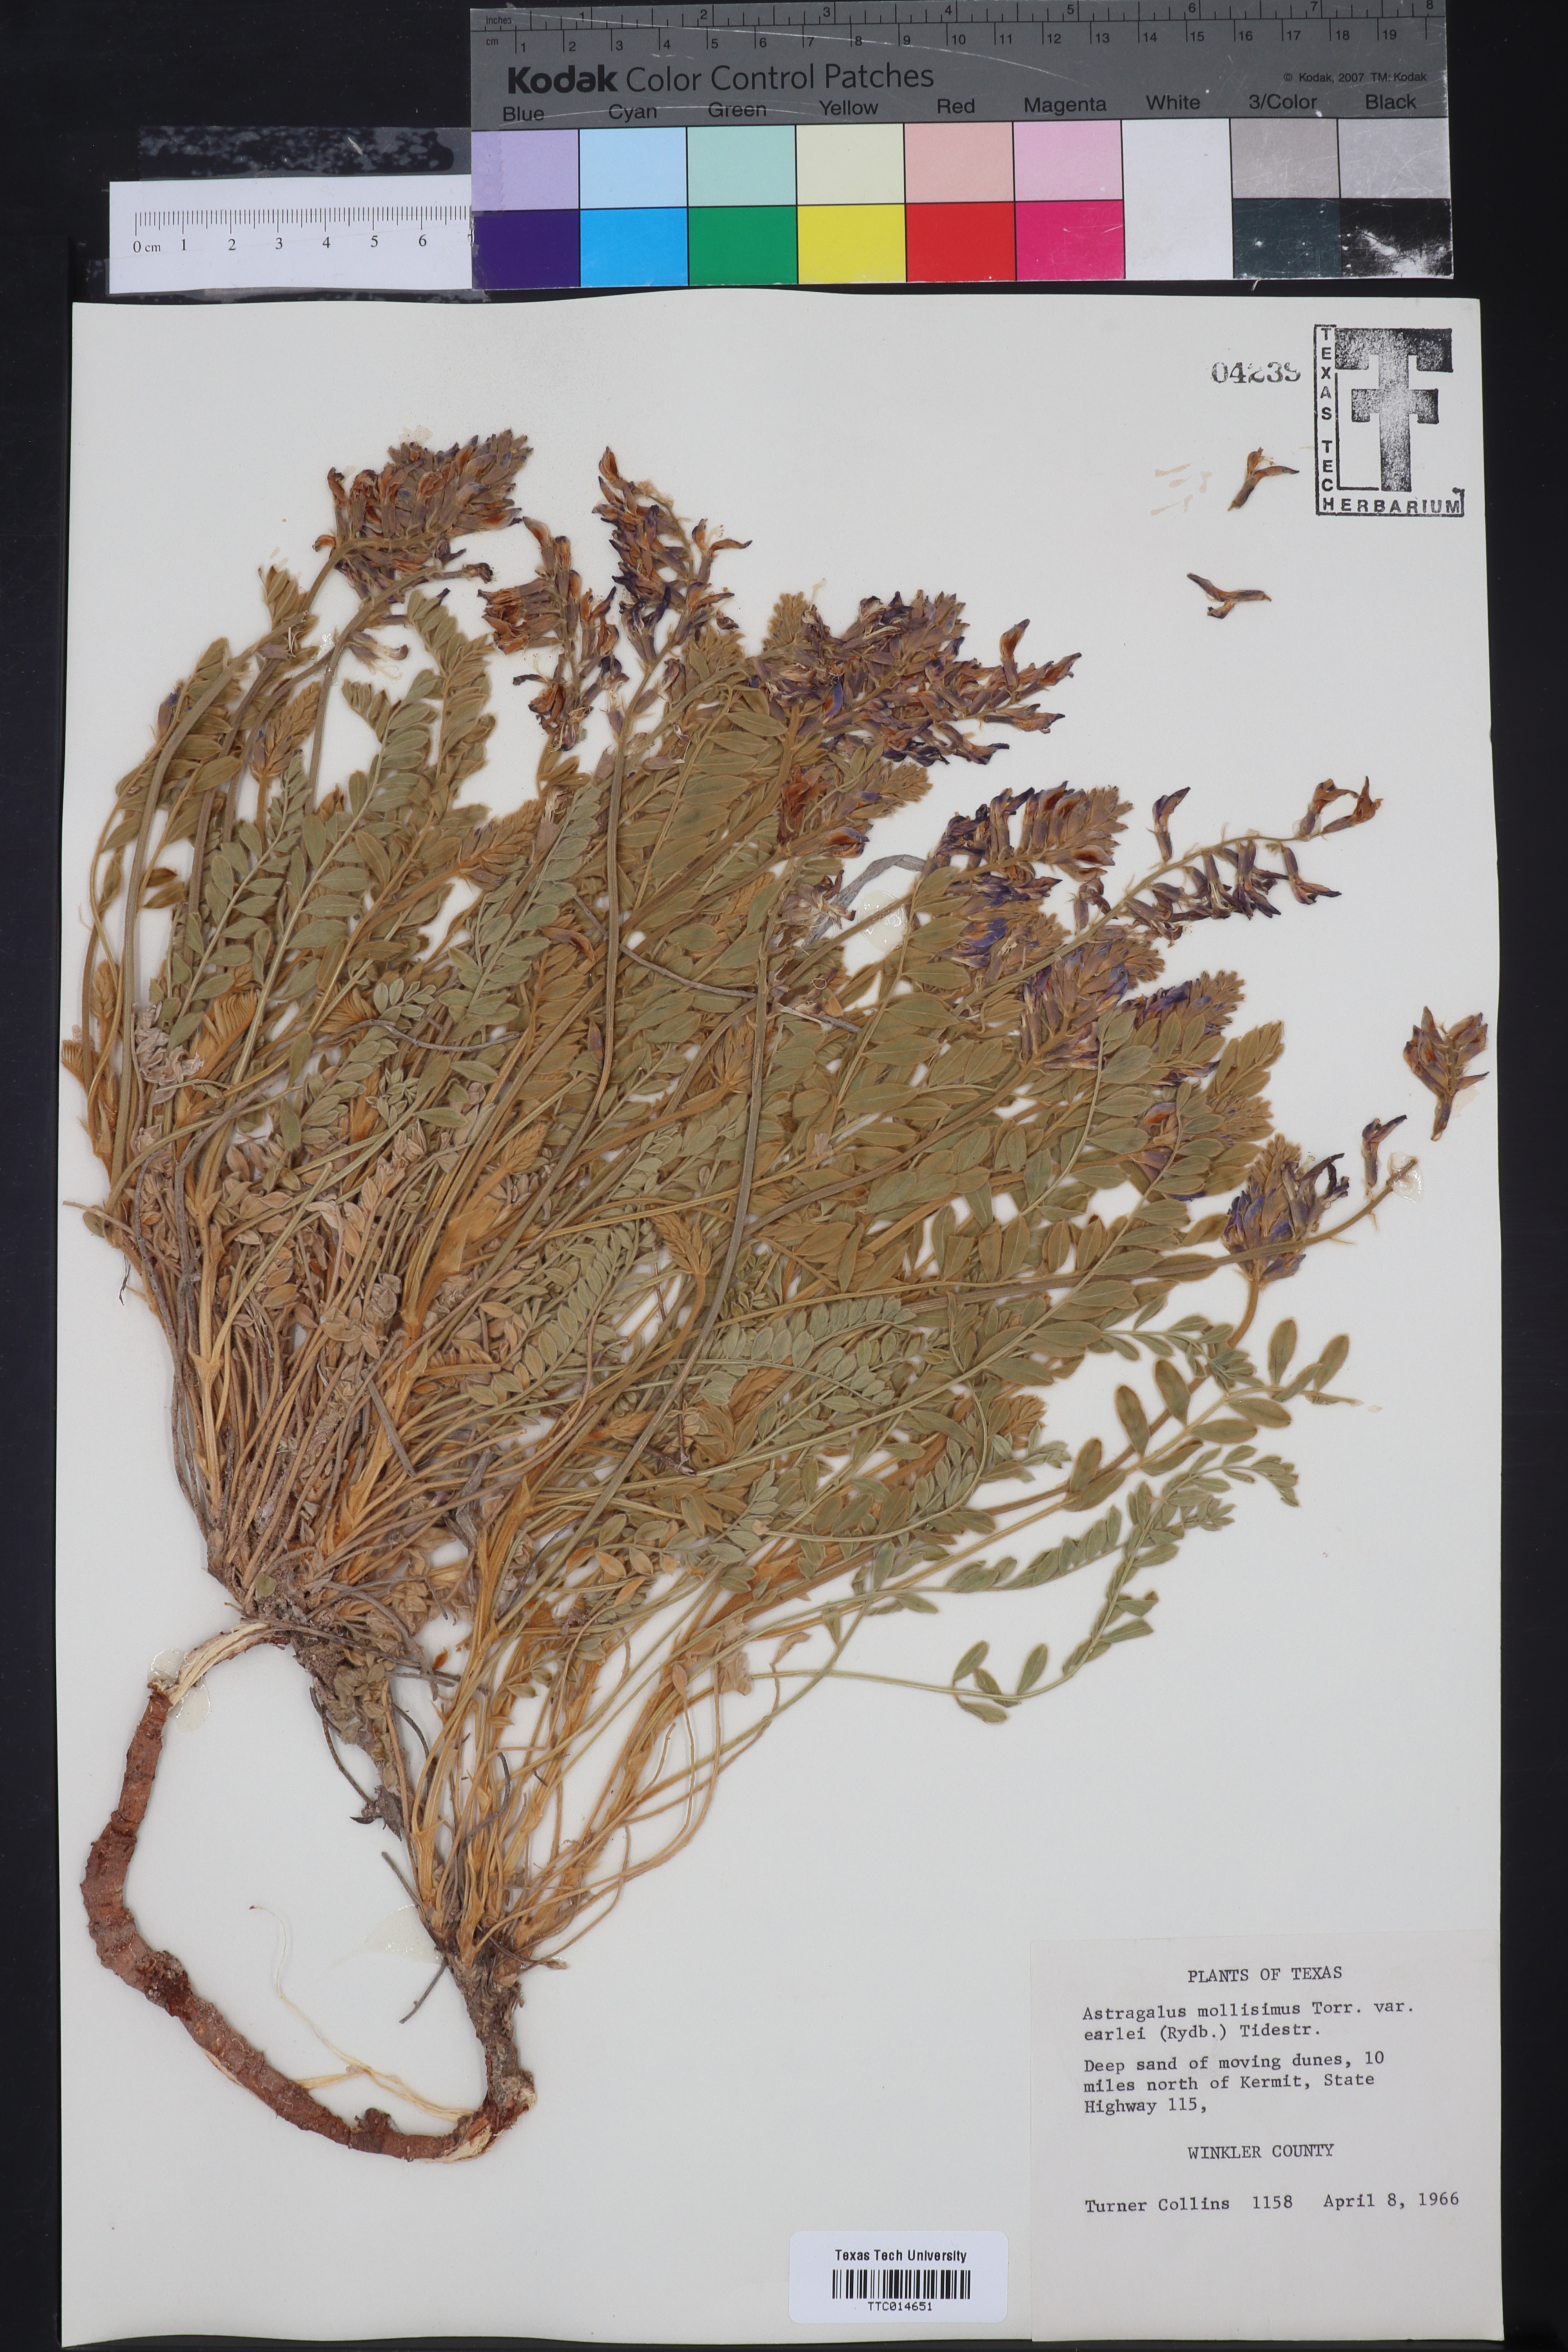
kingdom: Plantae
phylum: Tracheophyta
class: Magnoliopsida
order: Fabales
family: Fabaceae
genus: Astragalus
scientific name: Astragalus mollissimus
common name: Woolly locoweed
